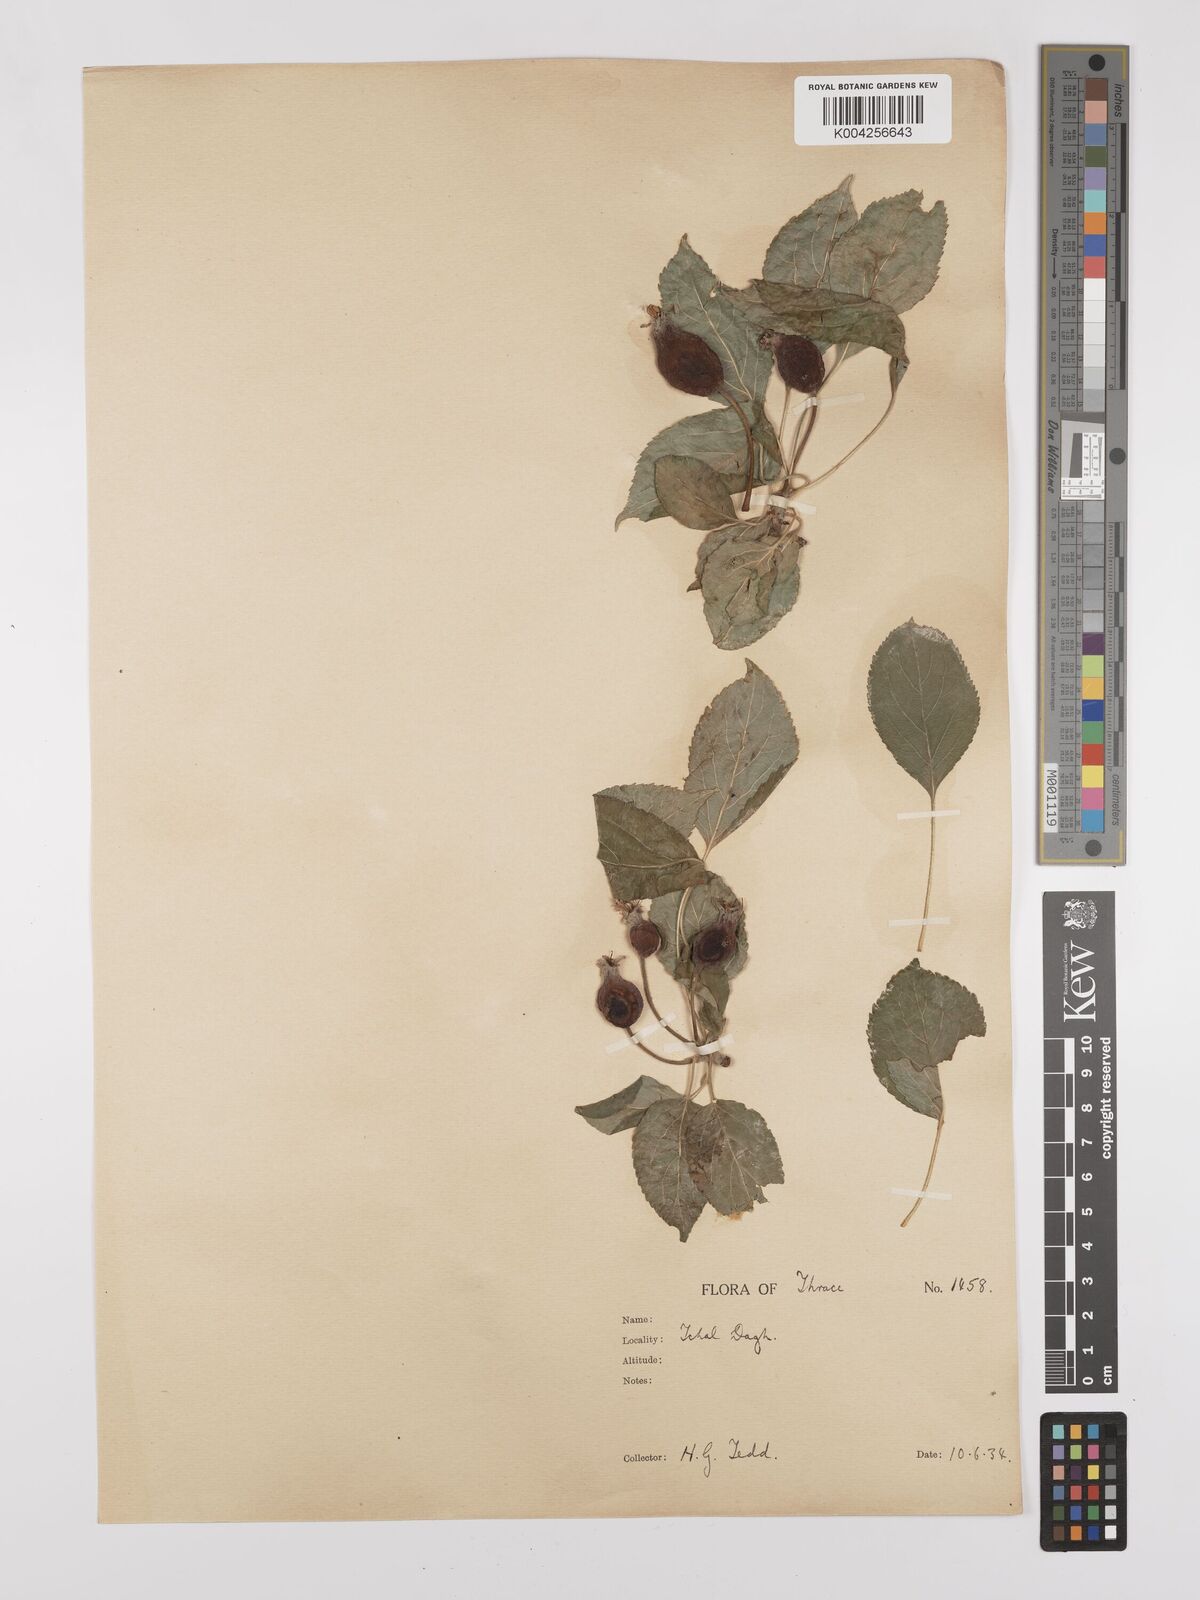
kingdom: Plantae
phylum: Tracheophyta
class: Magnoliopsida
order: Rosales
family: Rosaceae
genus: Malus
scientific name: Malus
